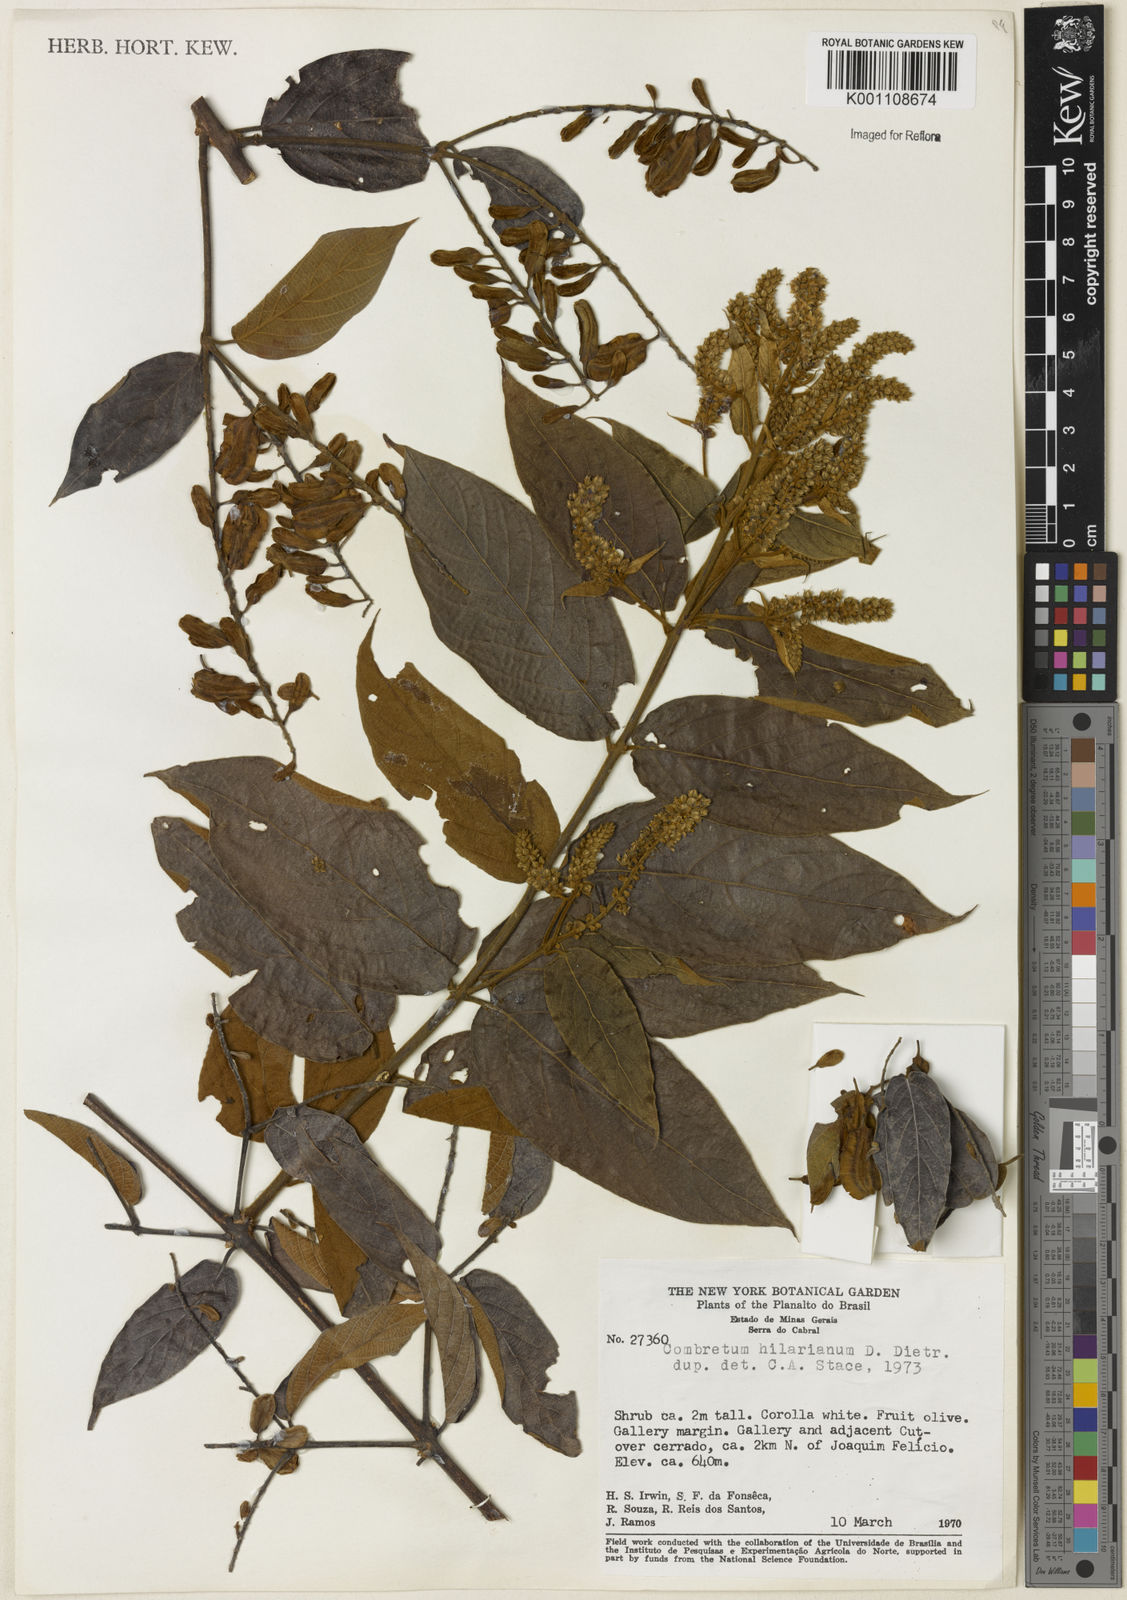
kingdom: Plantae
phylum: Tracheophyta
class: Magnoliopsida
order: Myrtales
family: Combretaceae
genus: Combretum
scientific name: Combretum hilarianum
